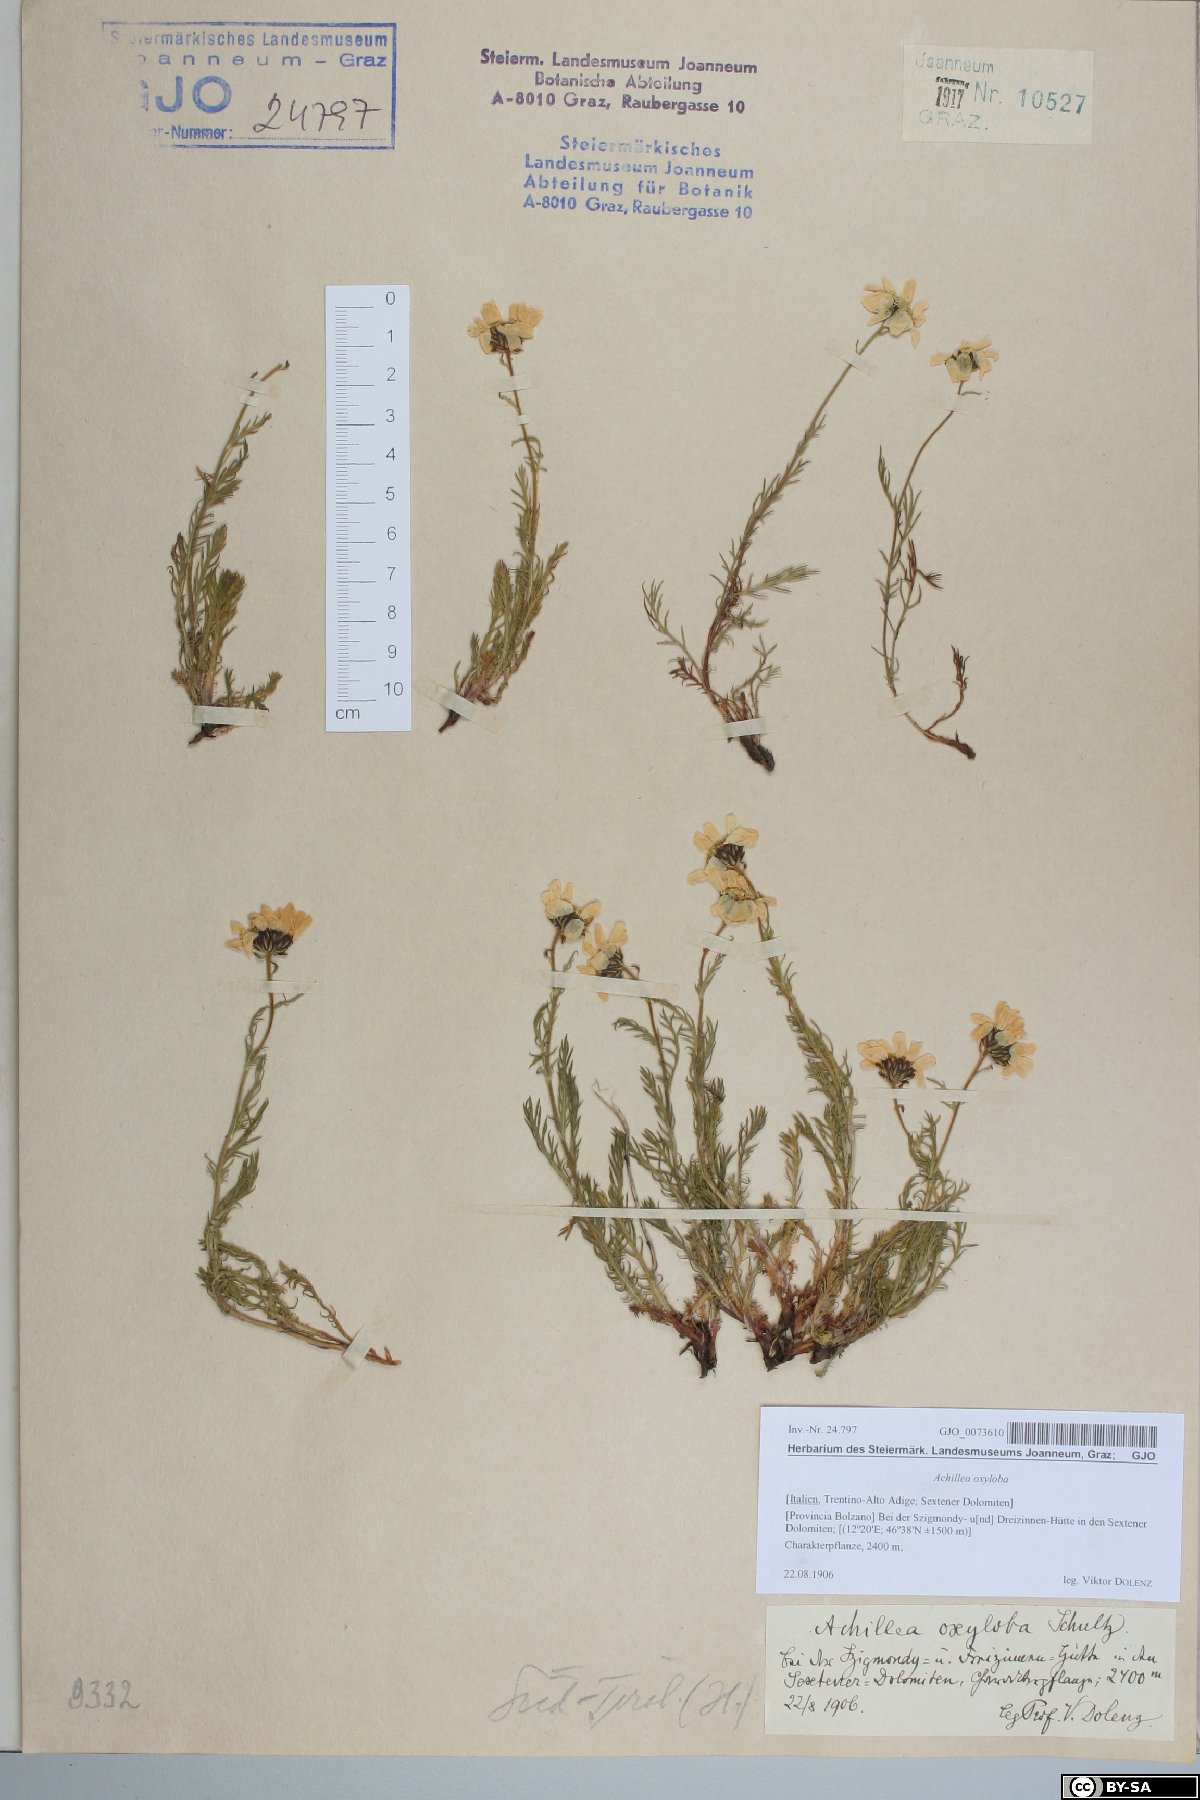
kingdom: Plantae
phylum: Tracheophyta
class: Magnoliopsida
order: Asterales
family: Asteraceae
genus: Achillea
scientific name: Achillea oxyloba
